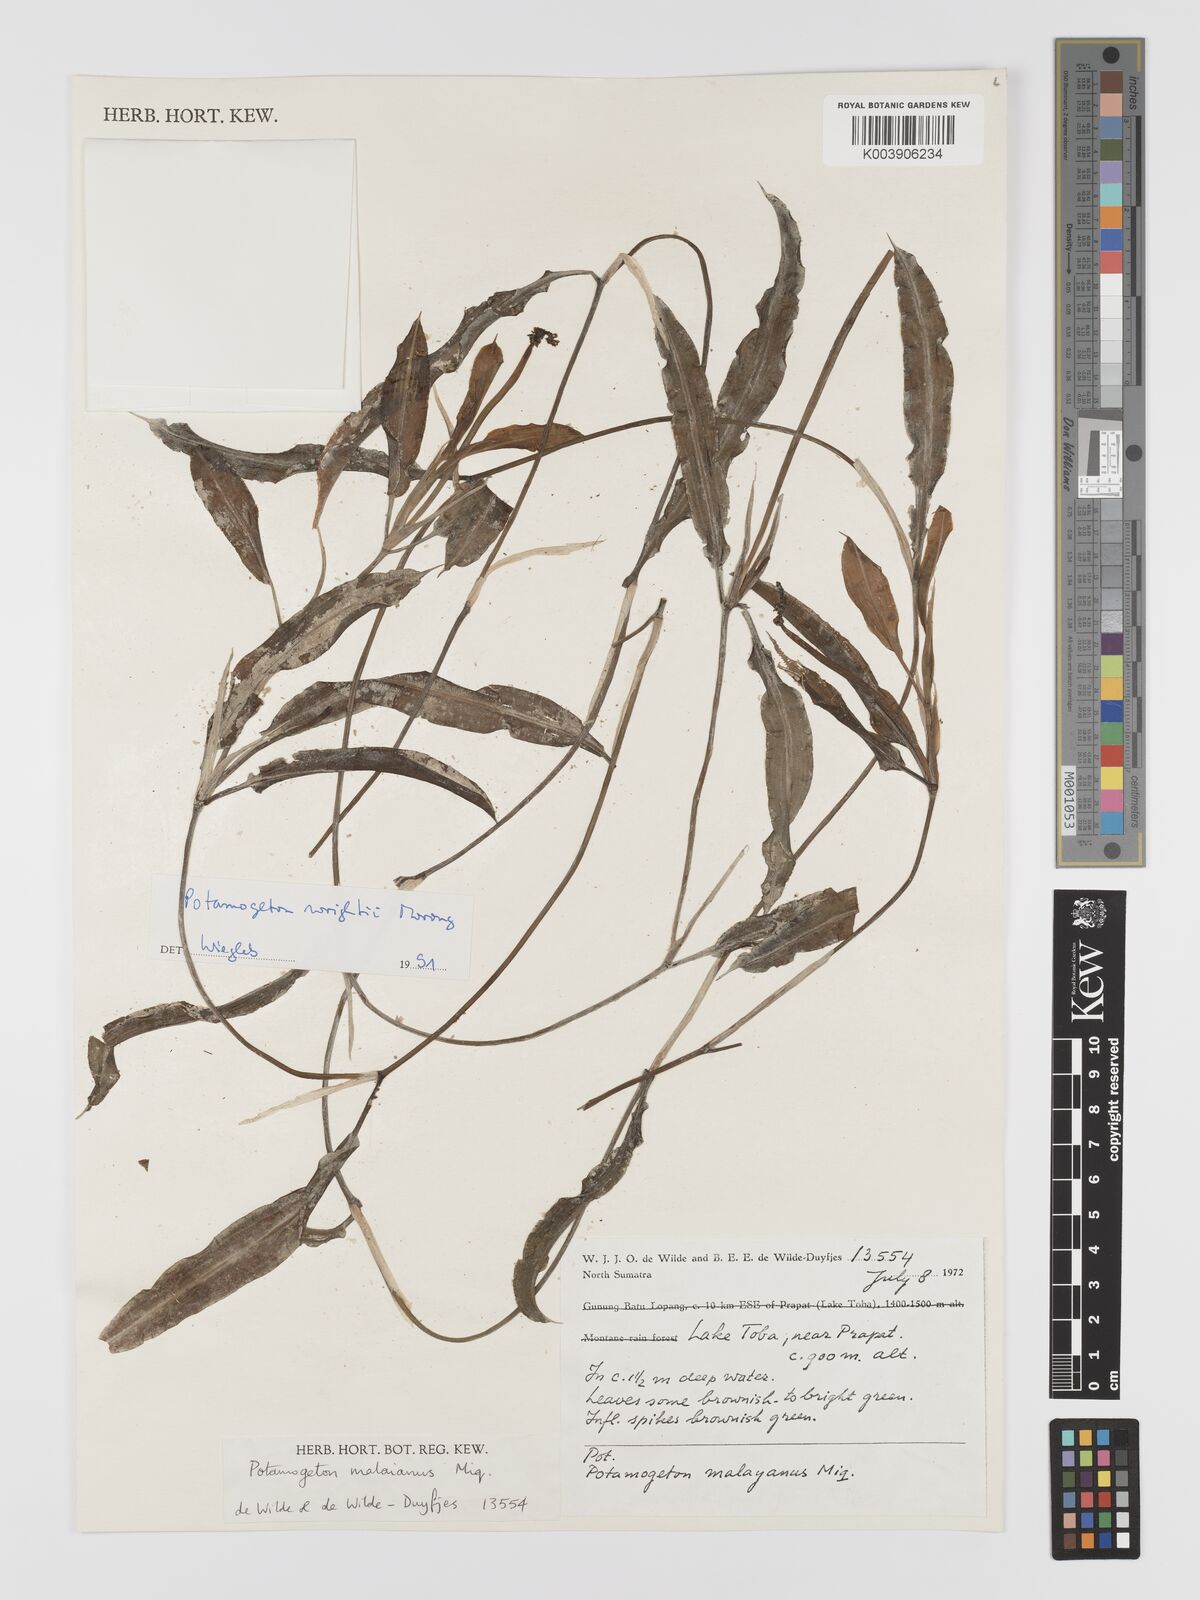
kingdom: Plantae
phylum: Tracheophyta
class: Liliopsida
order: Alismatales
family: Potamogetonaceae
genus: Potamogeton
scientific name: Potamogeton wrightii
